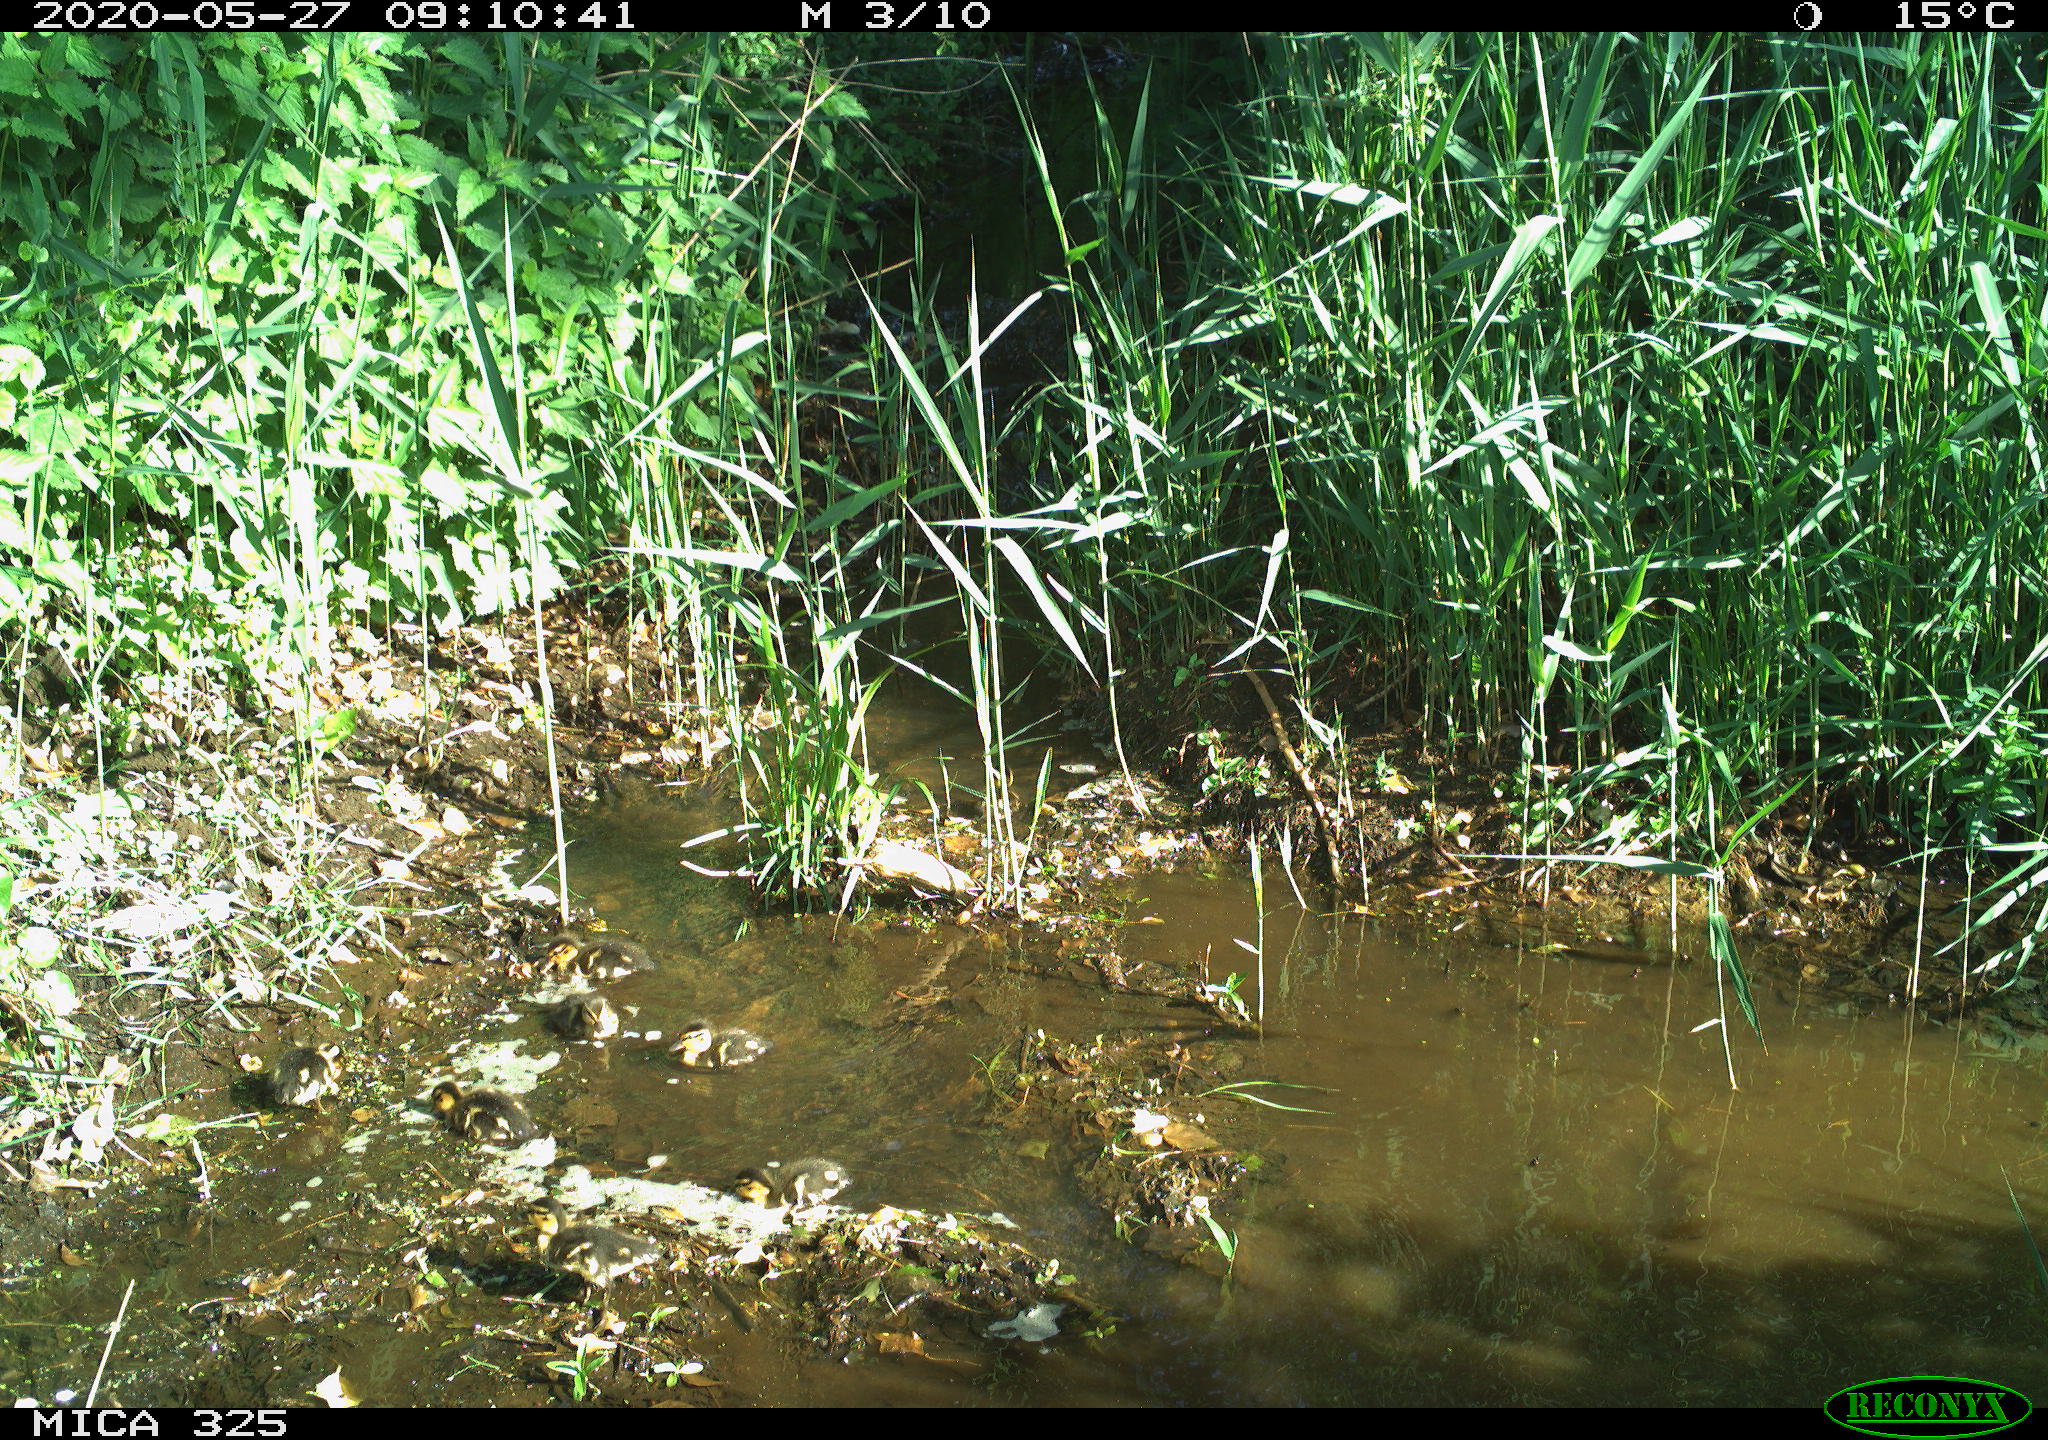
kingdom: Animalia
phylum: Chordata
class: Aves
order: Anseriformes
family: Anatidae
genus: Anas
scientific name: Anas platyrhynchos
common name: Mallard
